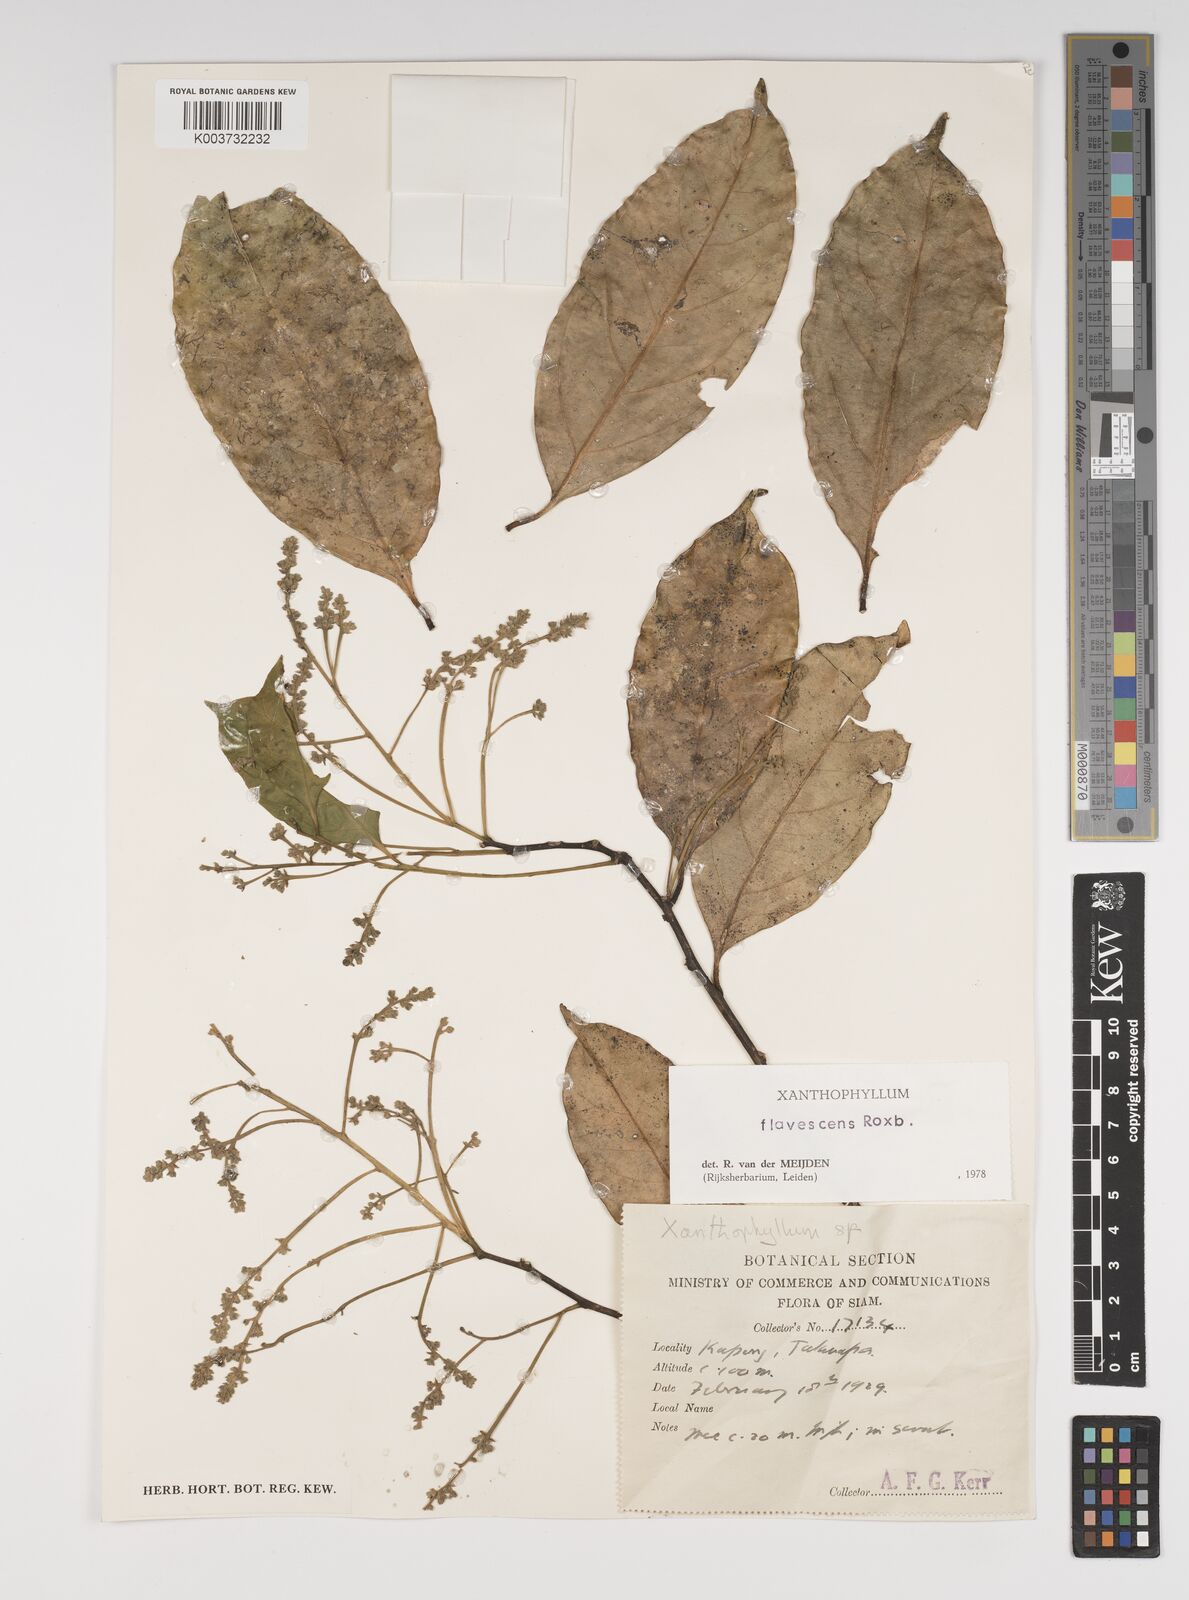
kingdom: Plantae
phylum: Tracheophyta
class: Magnoliopsida
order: Fabales
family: Polygalaceae
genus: Xanthophyllum
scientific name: Xanthophyllum flavescens
